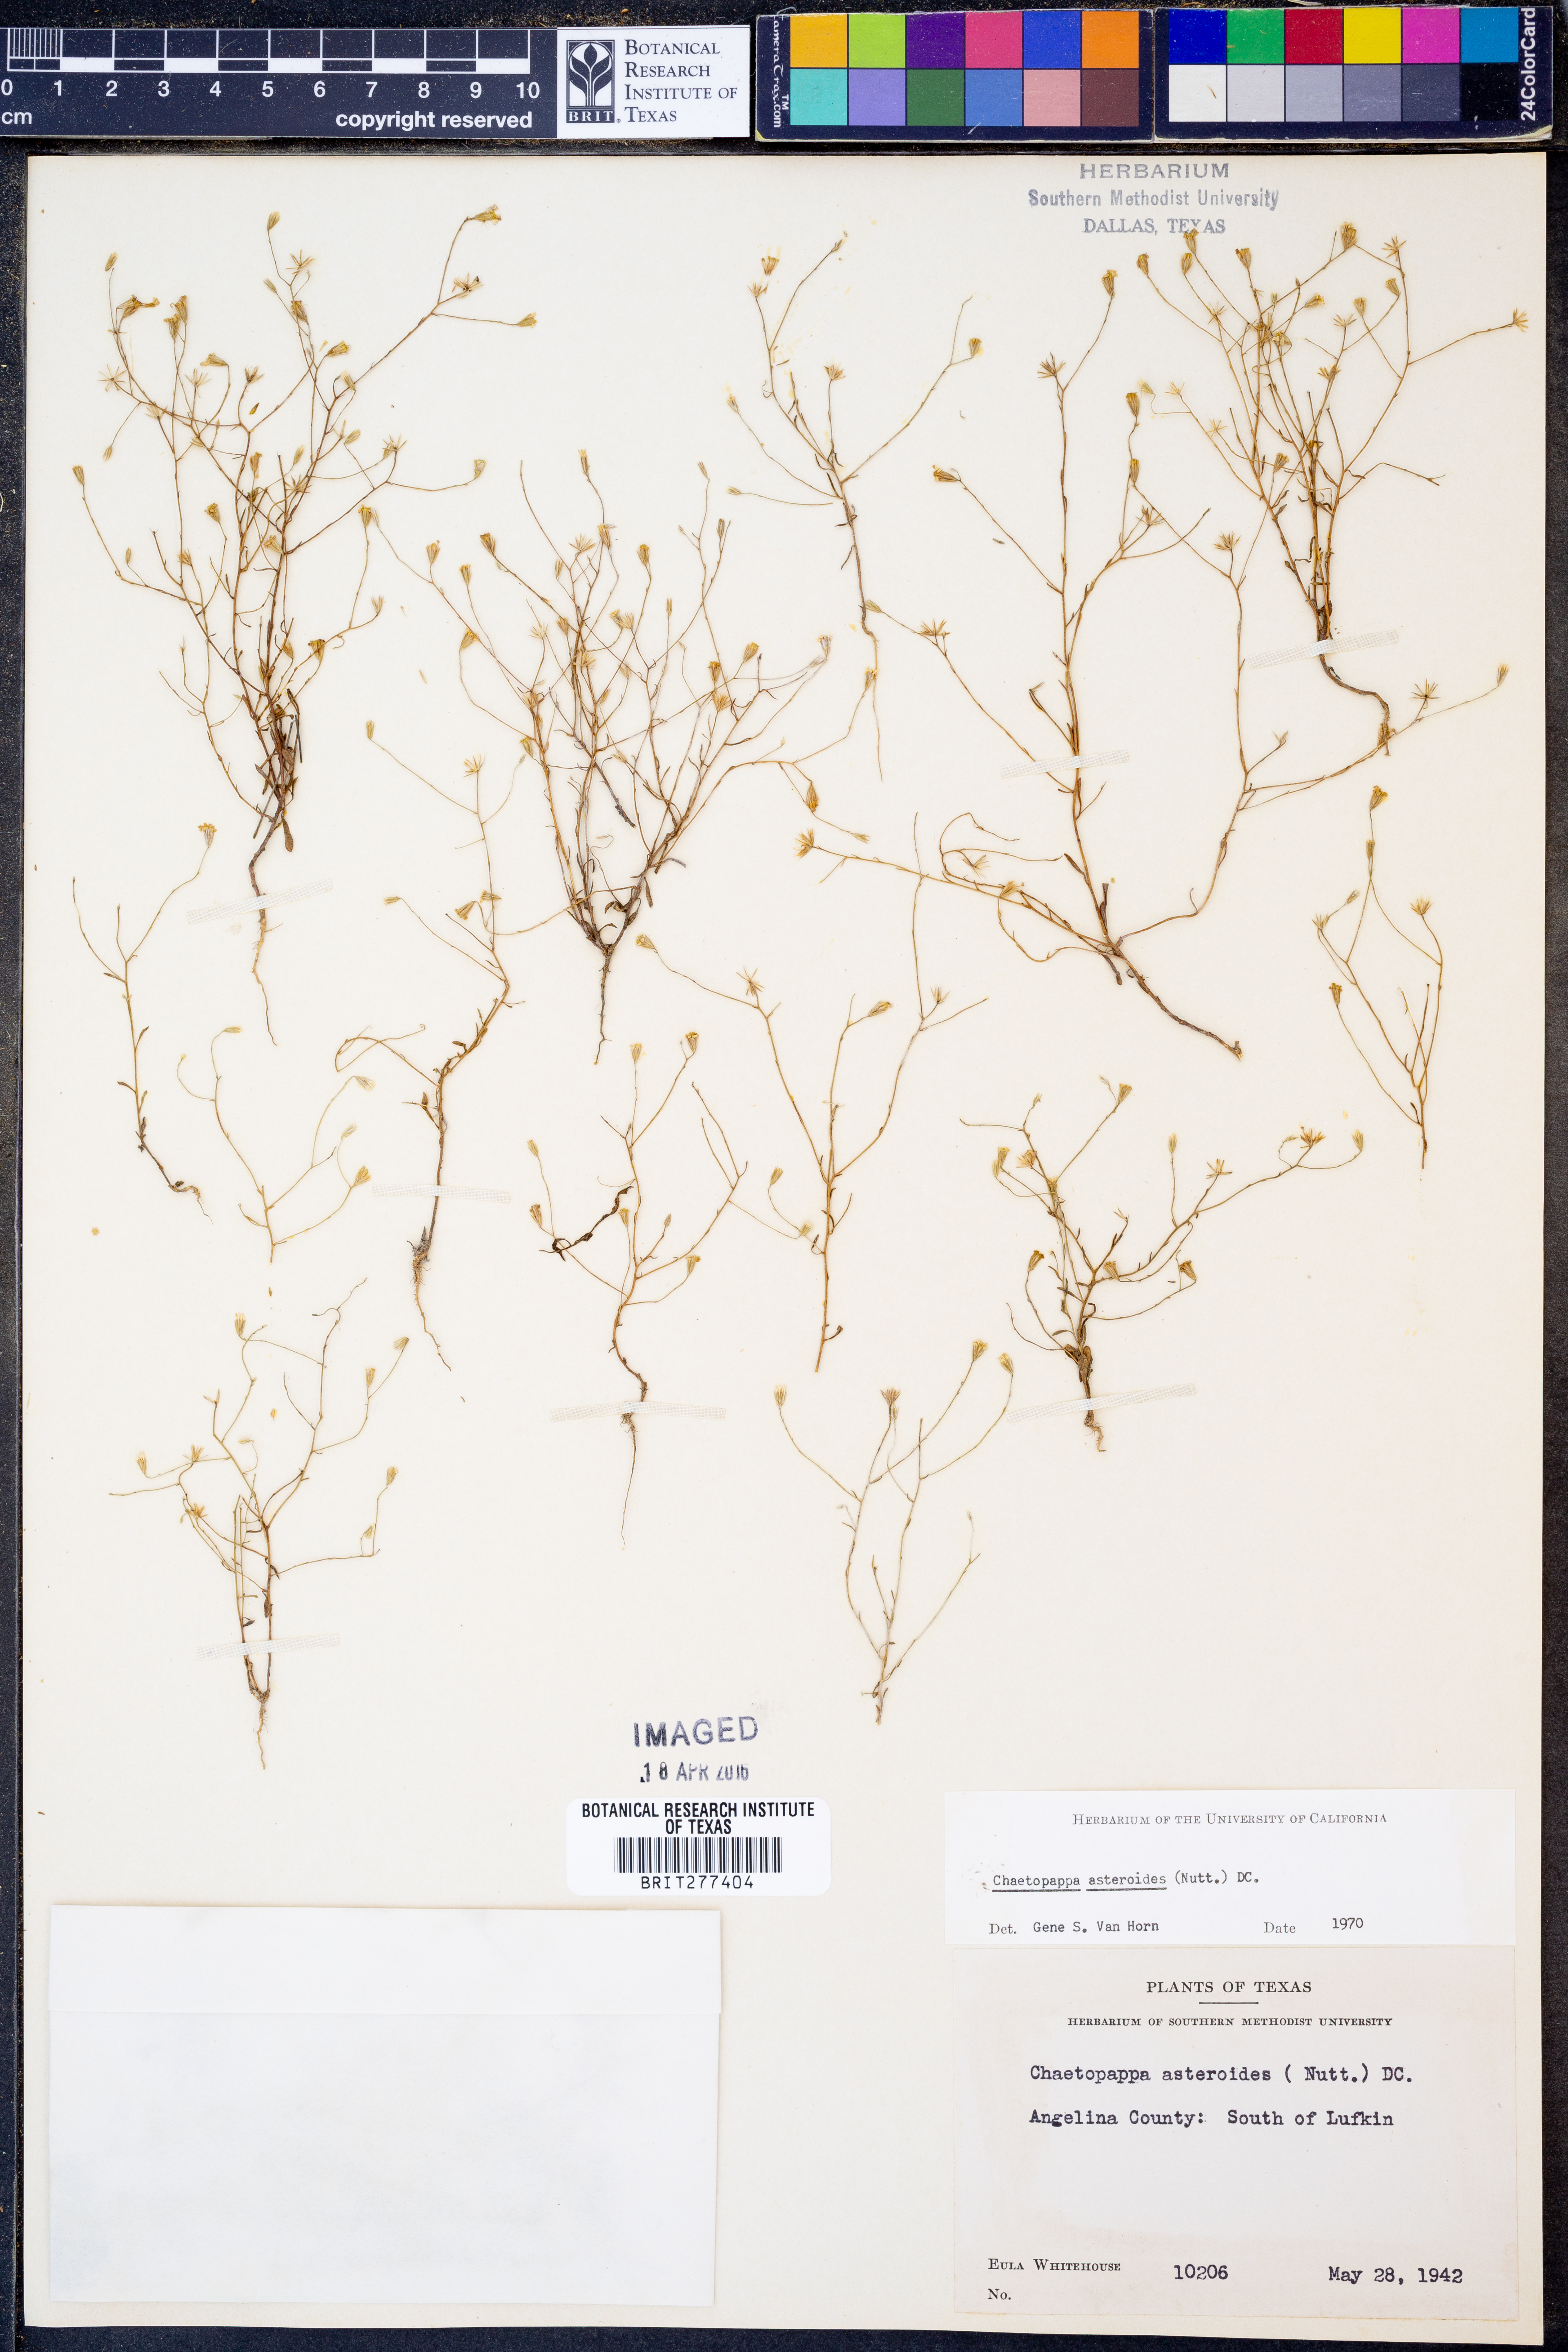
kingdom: Plantae
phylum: Tracheophyta
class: Magnoliopsida
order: Asterales
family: Asteraceae
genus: Chaetopappa
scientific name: Chaetopappa asteroides
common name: Tiny lazy daisy
